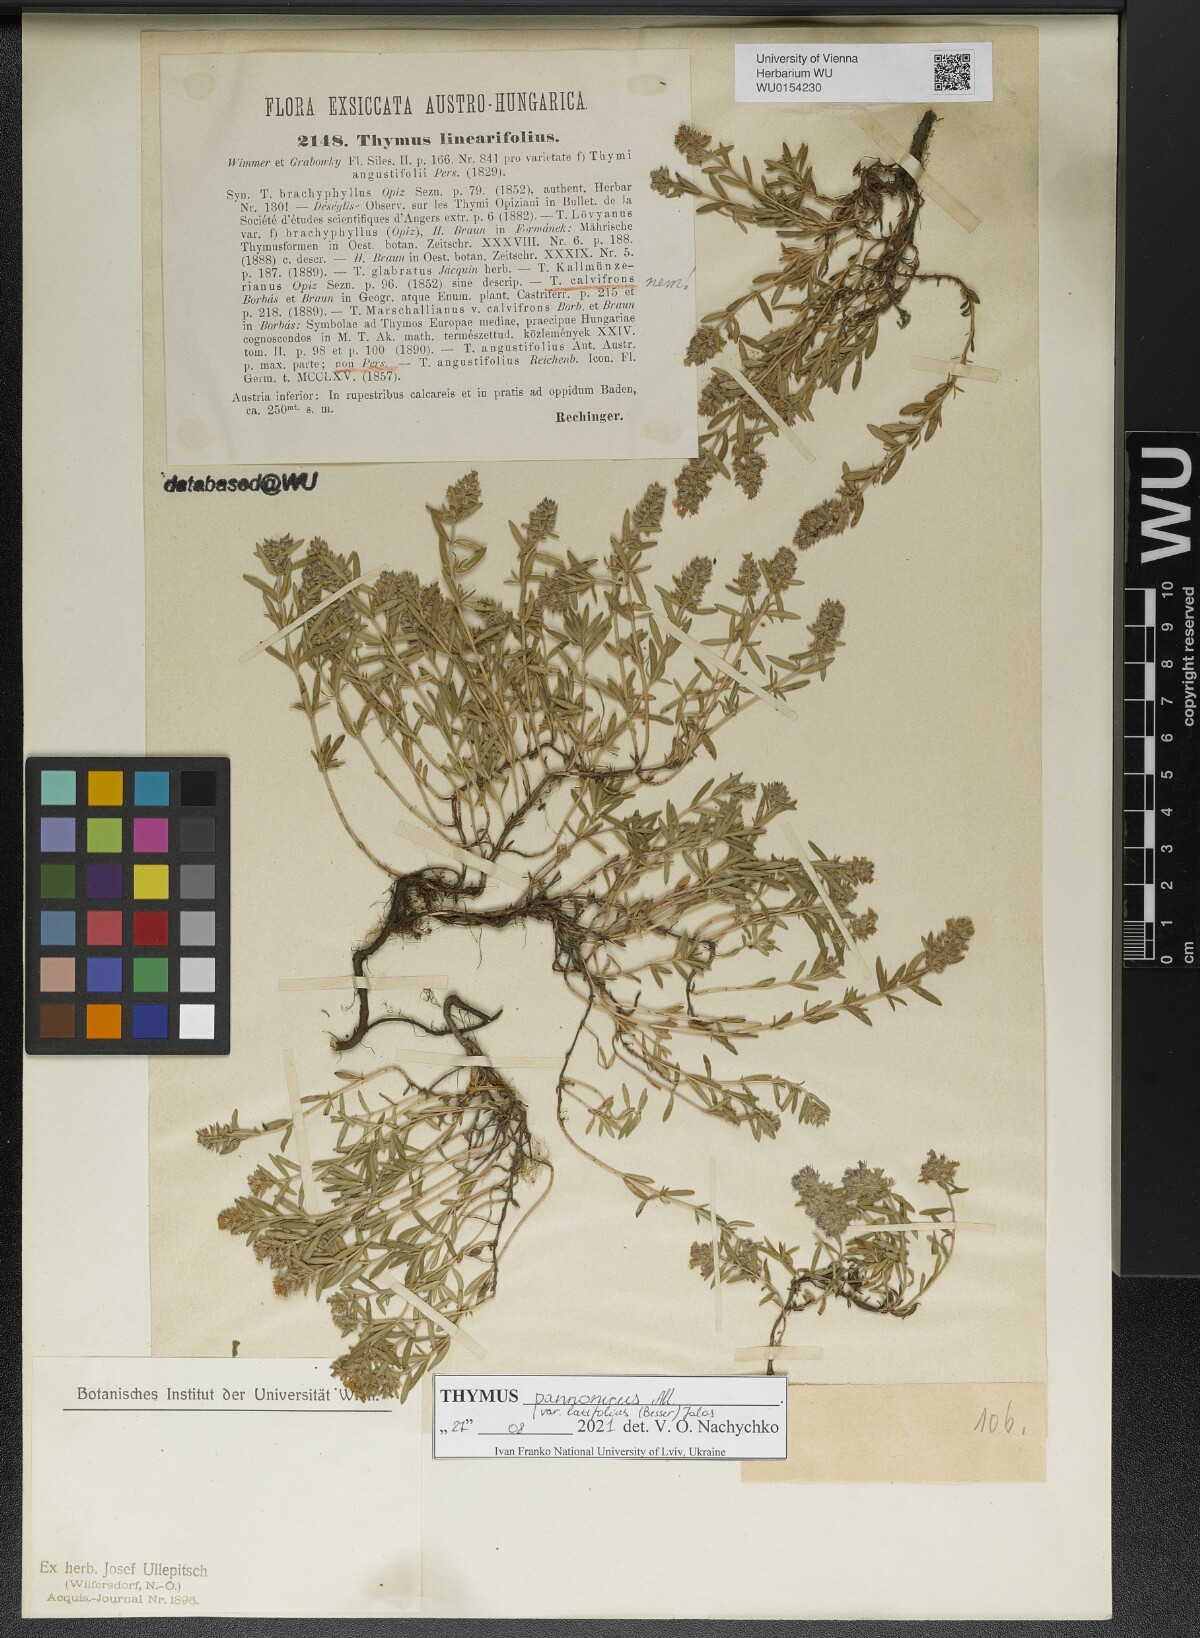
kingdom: Plantae
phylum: Tracheophyta
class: Magnoliopsida
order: Lamiales
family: Lamiaceae
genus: Thymus
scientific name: Thymus pannonicus
